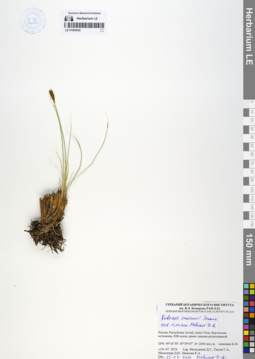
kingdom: Plantae
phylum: Tracheophyta
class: Liliopsida
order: Poales
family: Cyperaceae
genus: Carex
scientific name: Carex borealipolaris
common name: Siberian bog sedge
